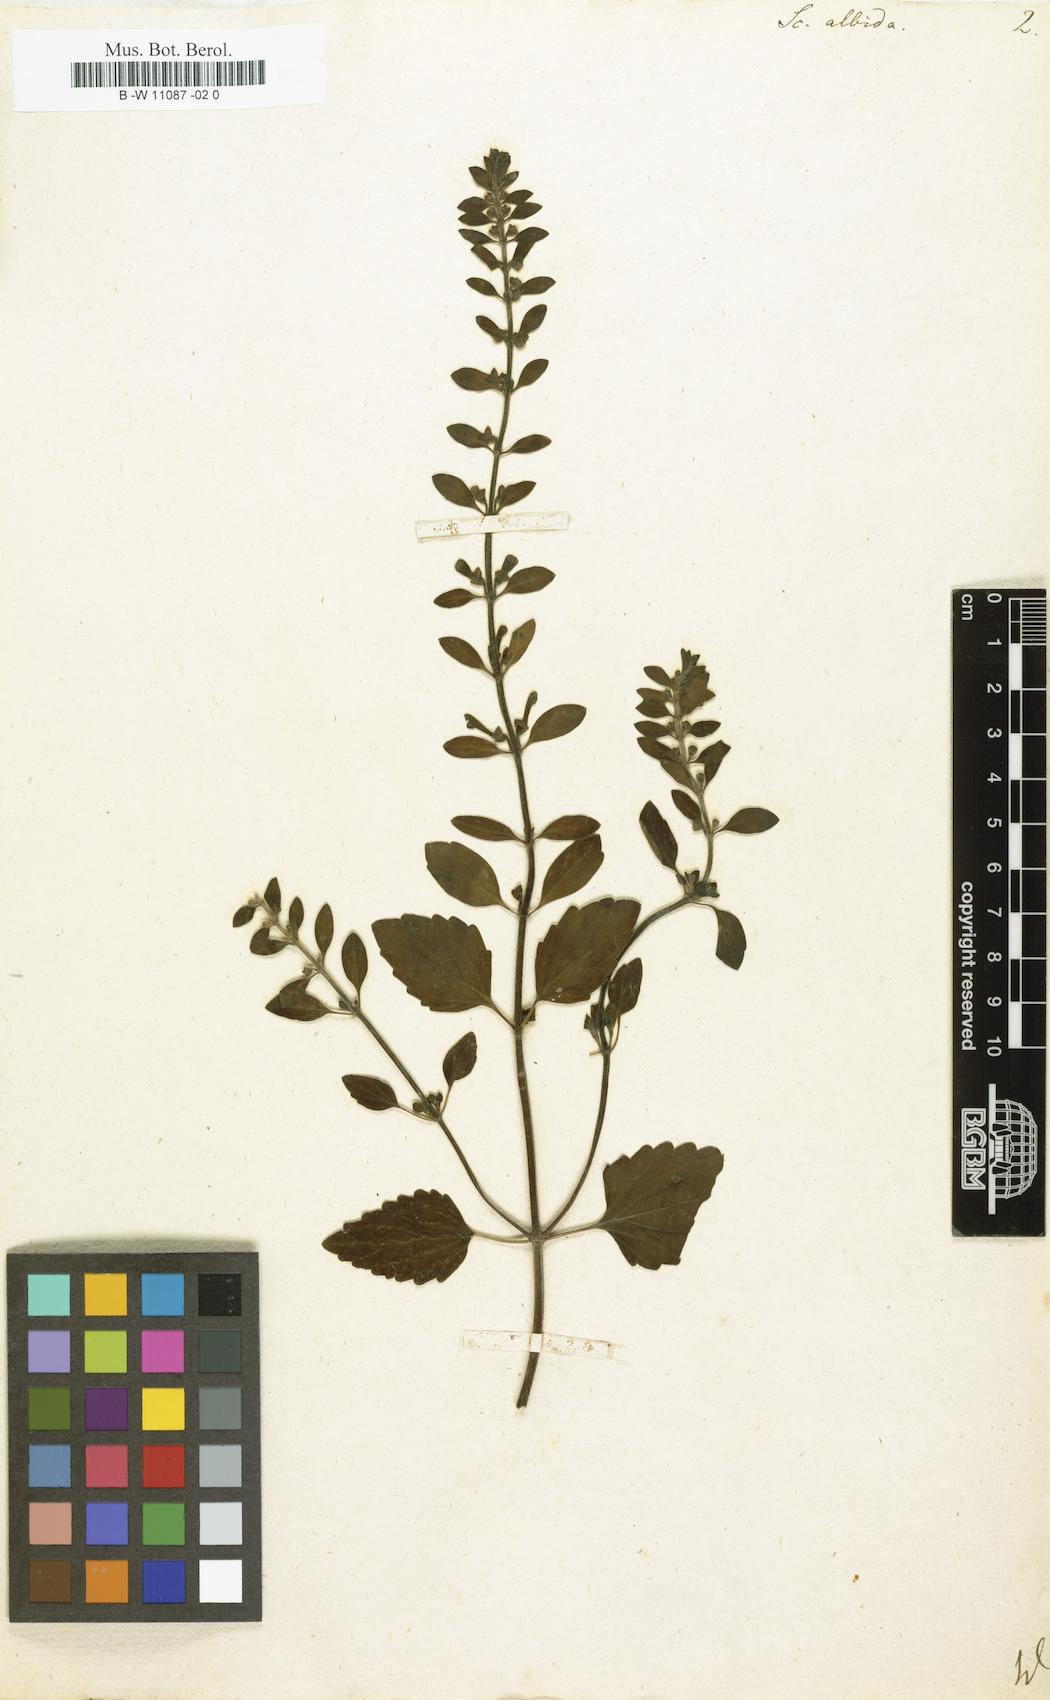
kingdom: Plantae
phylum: Tracheophyta
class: Magnoliopsida
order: Lamiales
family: Lamiaceae
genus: Scutellaria
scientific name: Scutellaria albida
